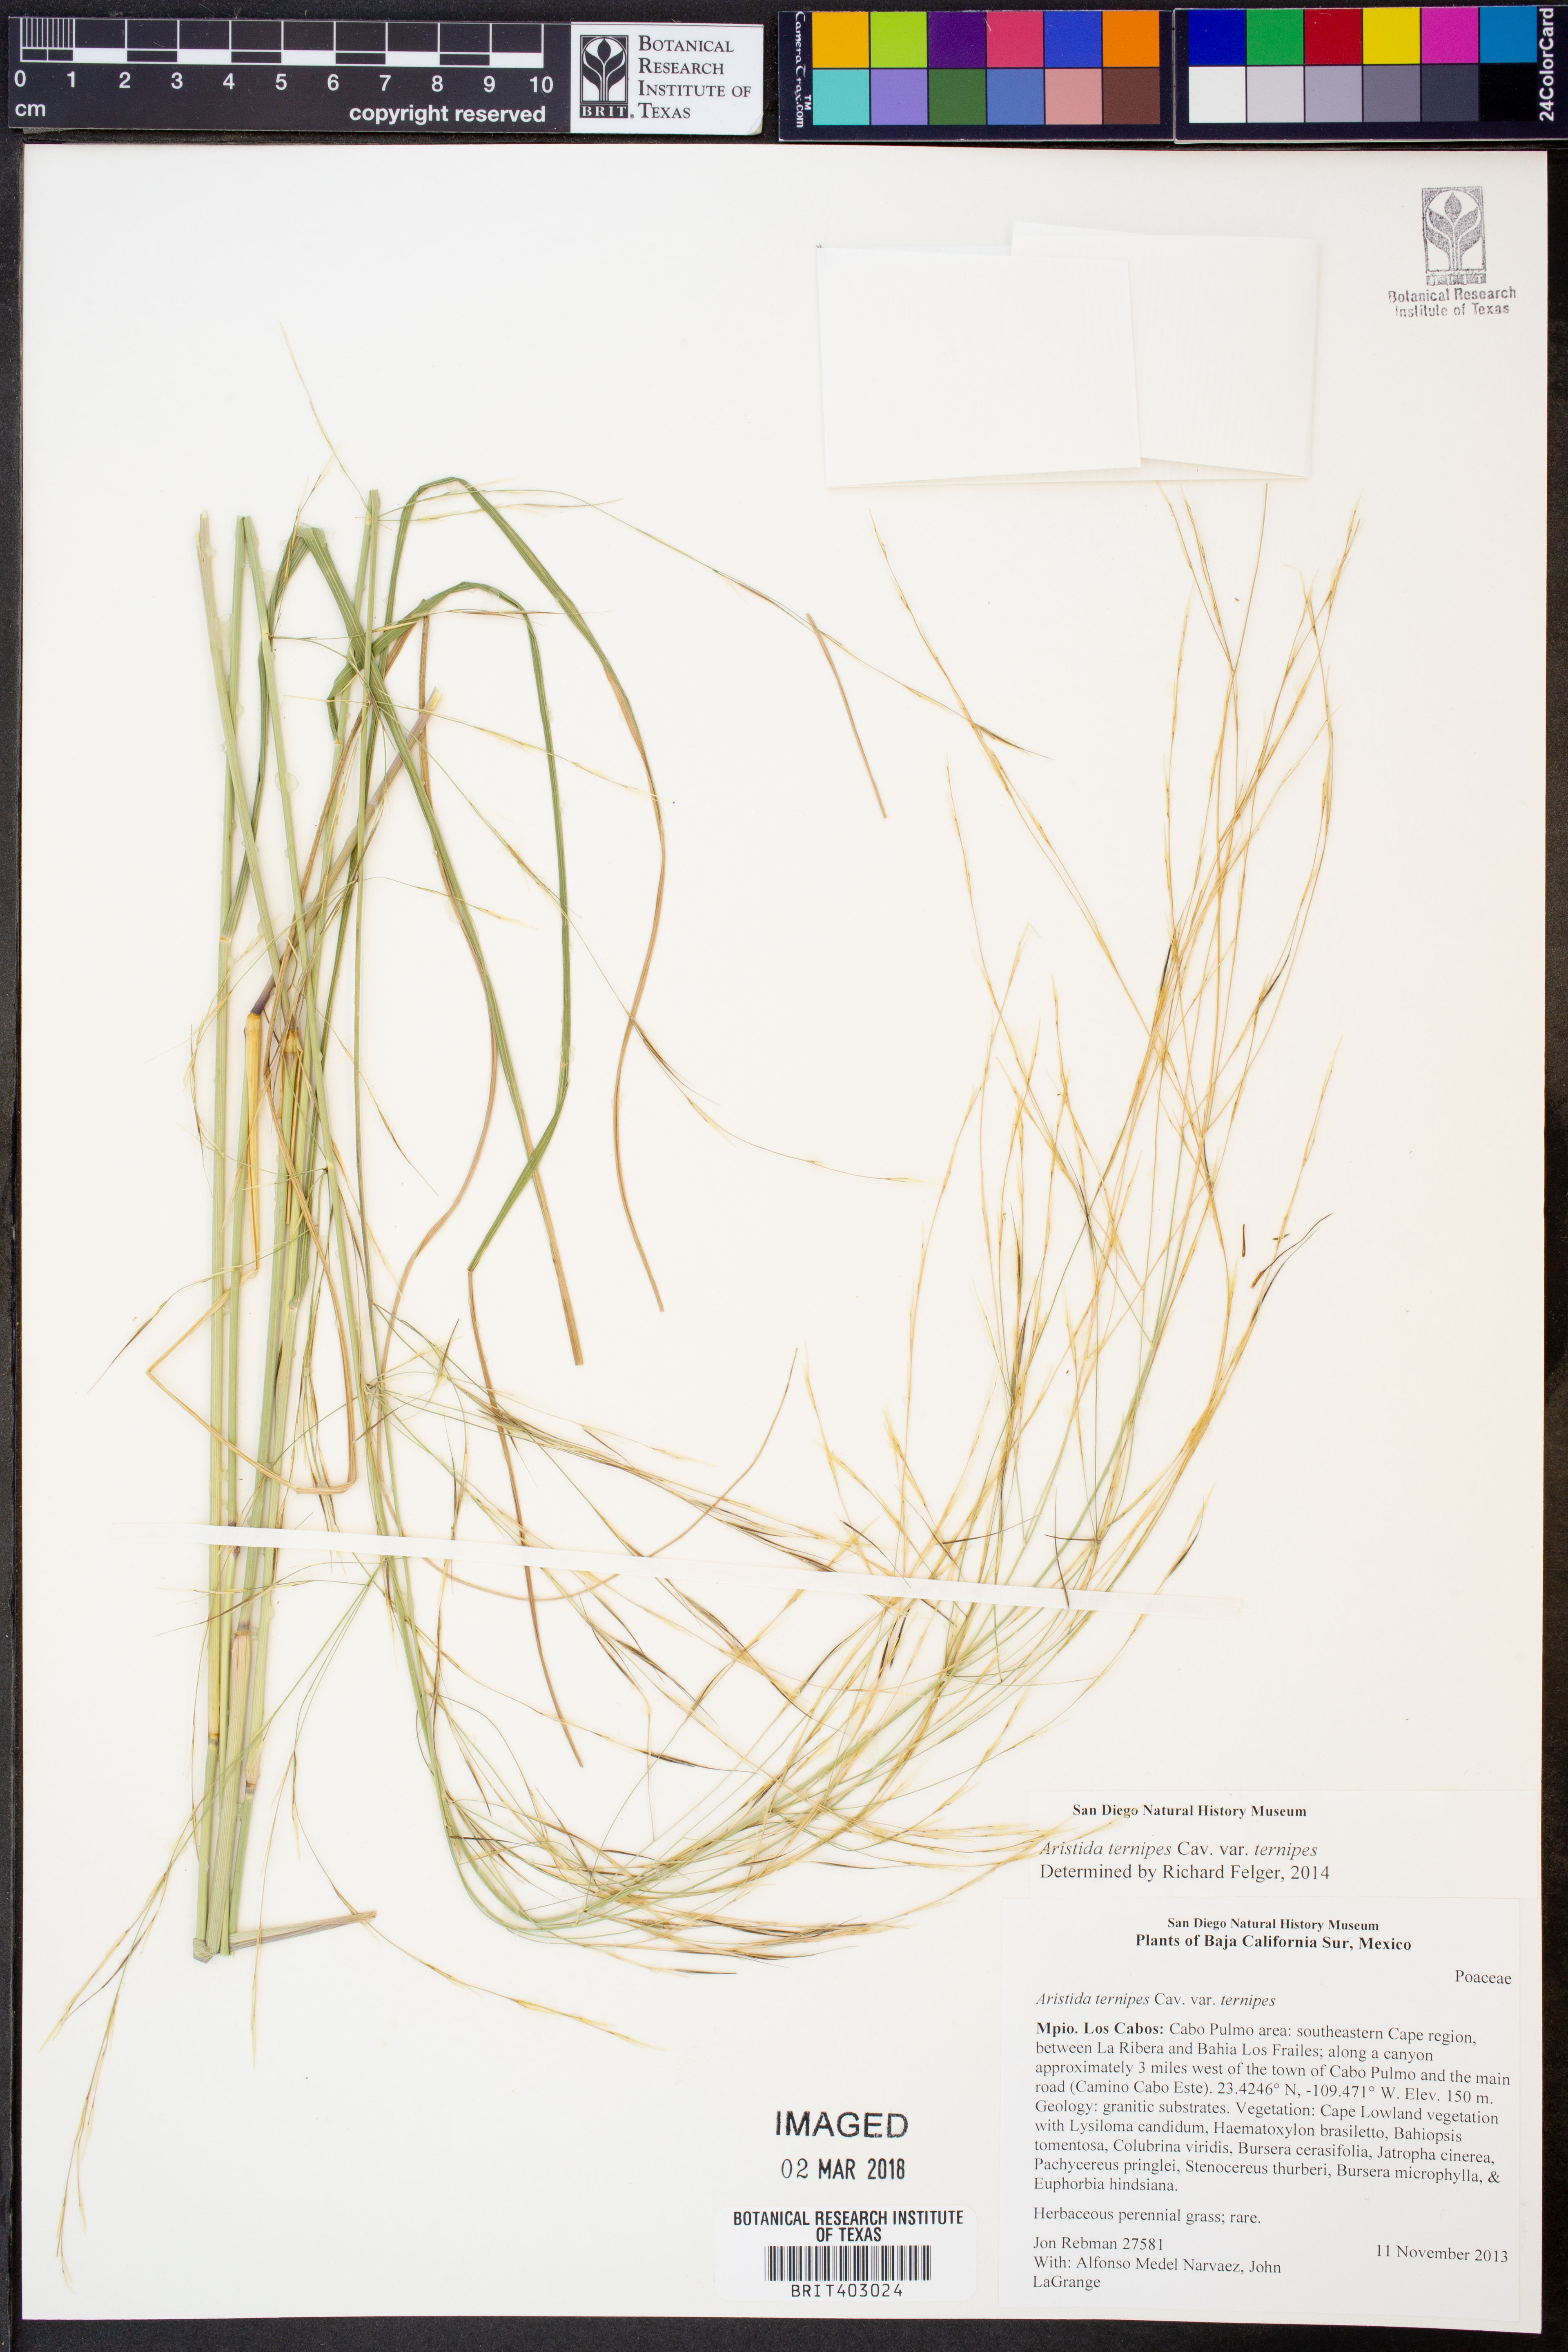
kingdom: Plantae
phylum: Tracheophyta
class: Liliopsida
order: Poales
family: Poaceae
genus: Aristida
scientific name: Aristida ternipes
